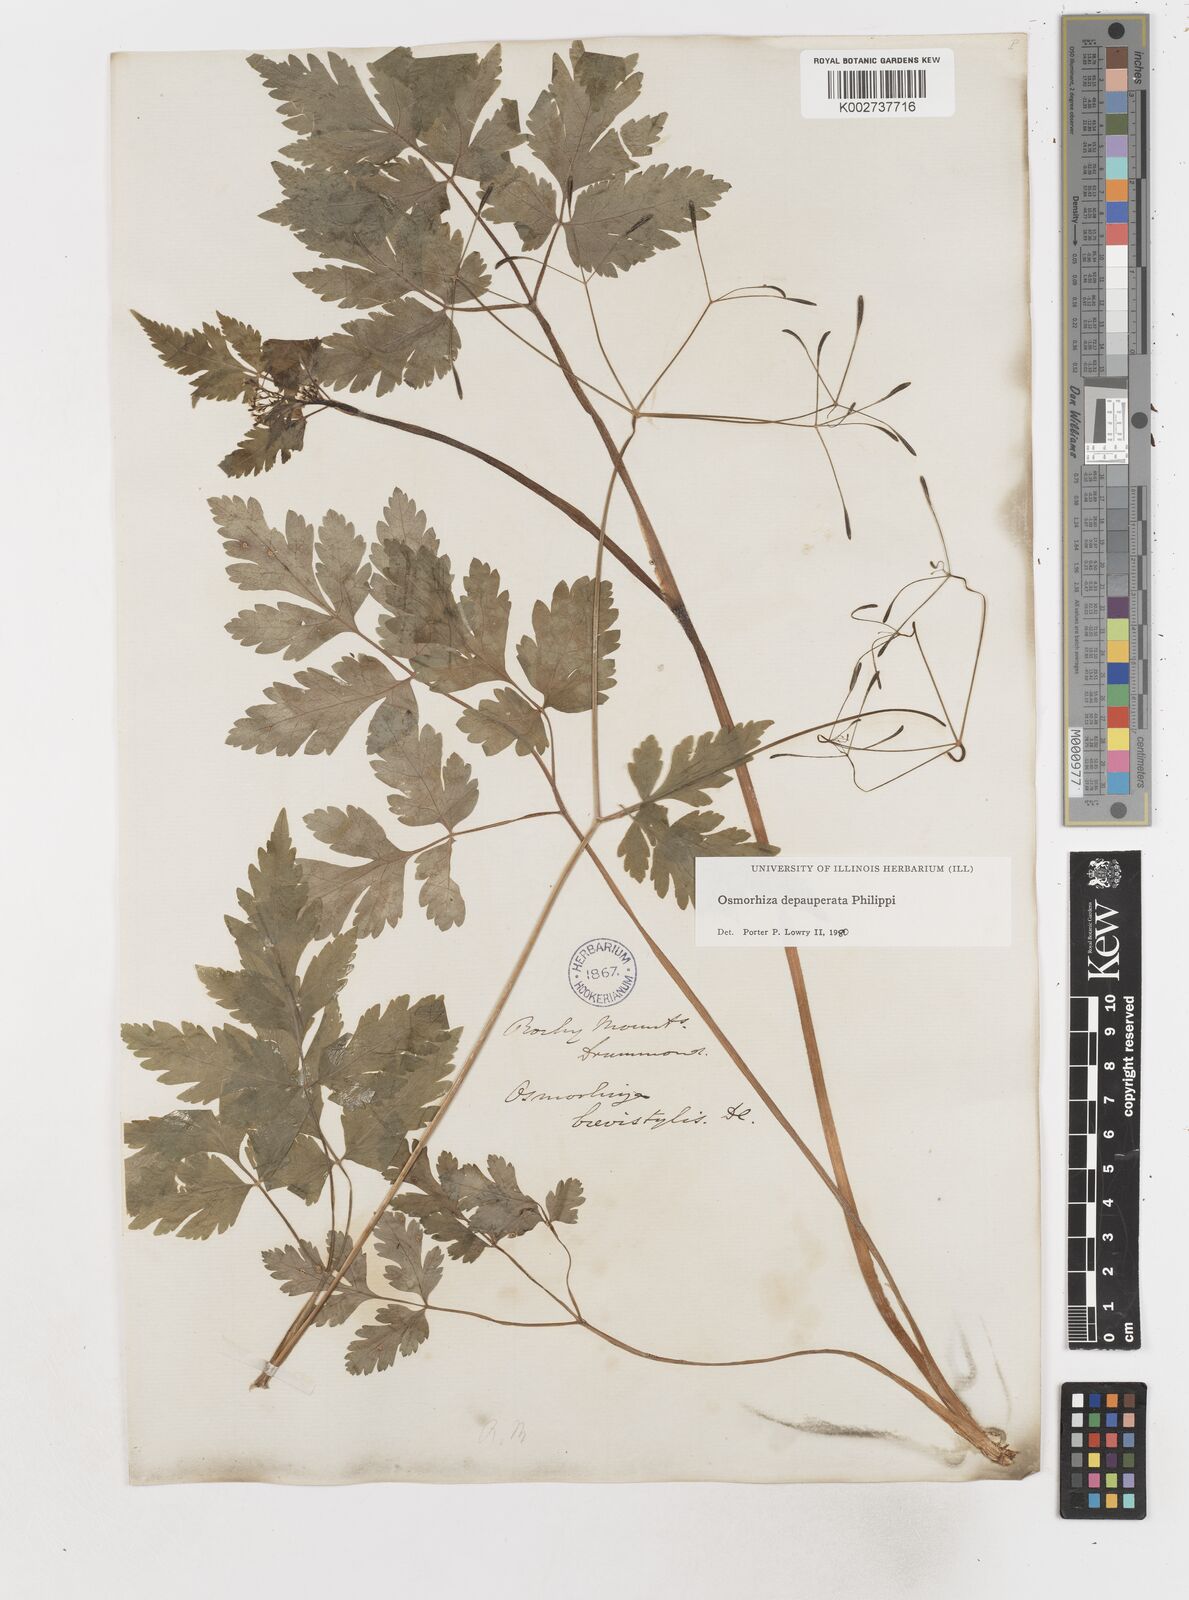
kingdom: Plantae
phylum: Tracheophyta
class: Magnoliopsida
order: Apiales
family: Apiaceae
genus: Osmorhiza
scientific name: Osmorhiza depauperata
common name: Blunt sweet cicely
